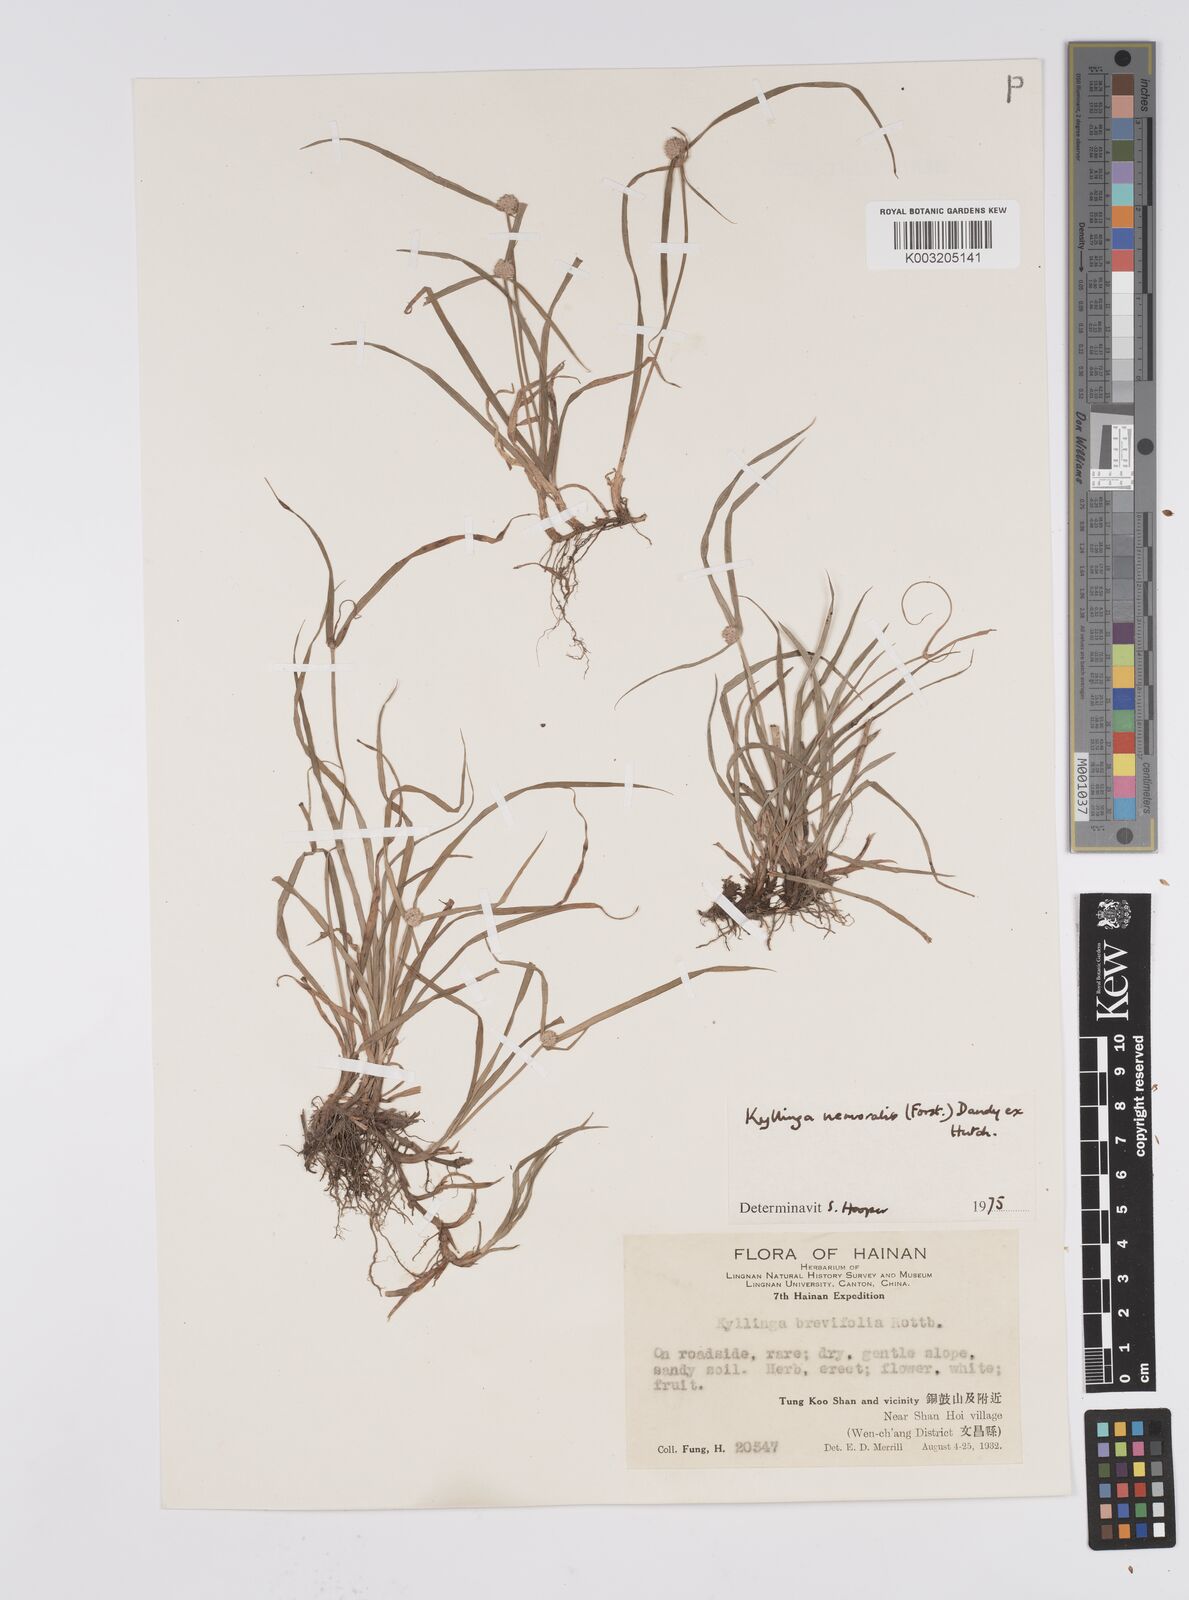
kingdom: Plantae
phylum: Tracheophyta
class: Liliopsida
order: Poales
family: Cyperaceae
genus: Cyperus
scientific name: Cyperus nemoralis
